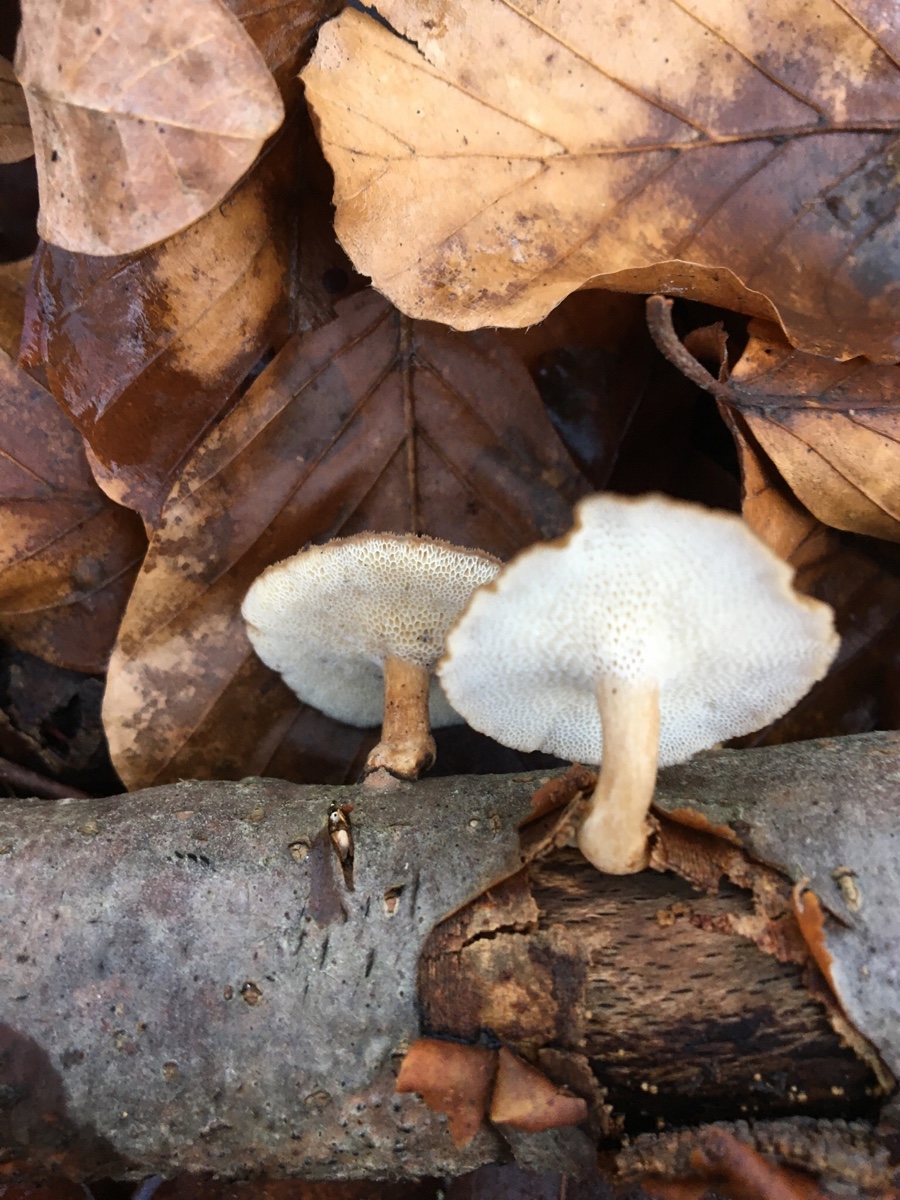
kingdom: Fungi
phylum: Basidiomycota
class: Agaricomycetes
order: Polyporales
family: Polyporaceae
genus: Lentinus
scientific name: Lentinus brumalis
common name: vinter-stilkporesvamp
